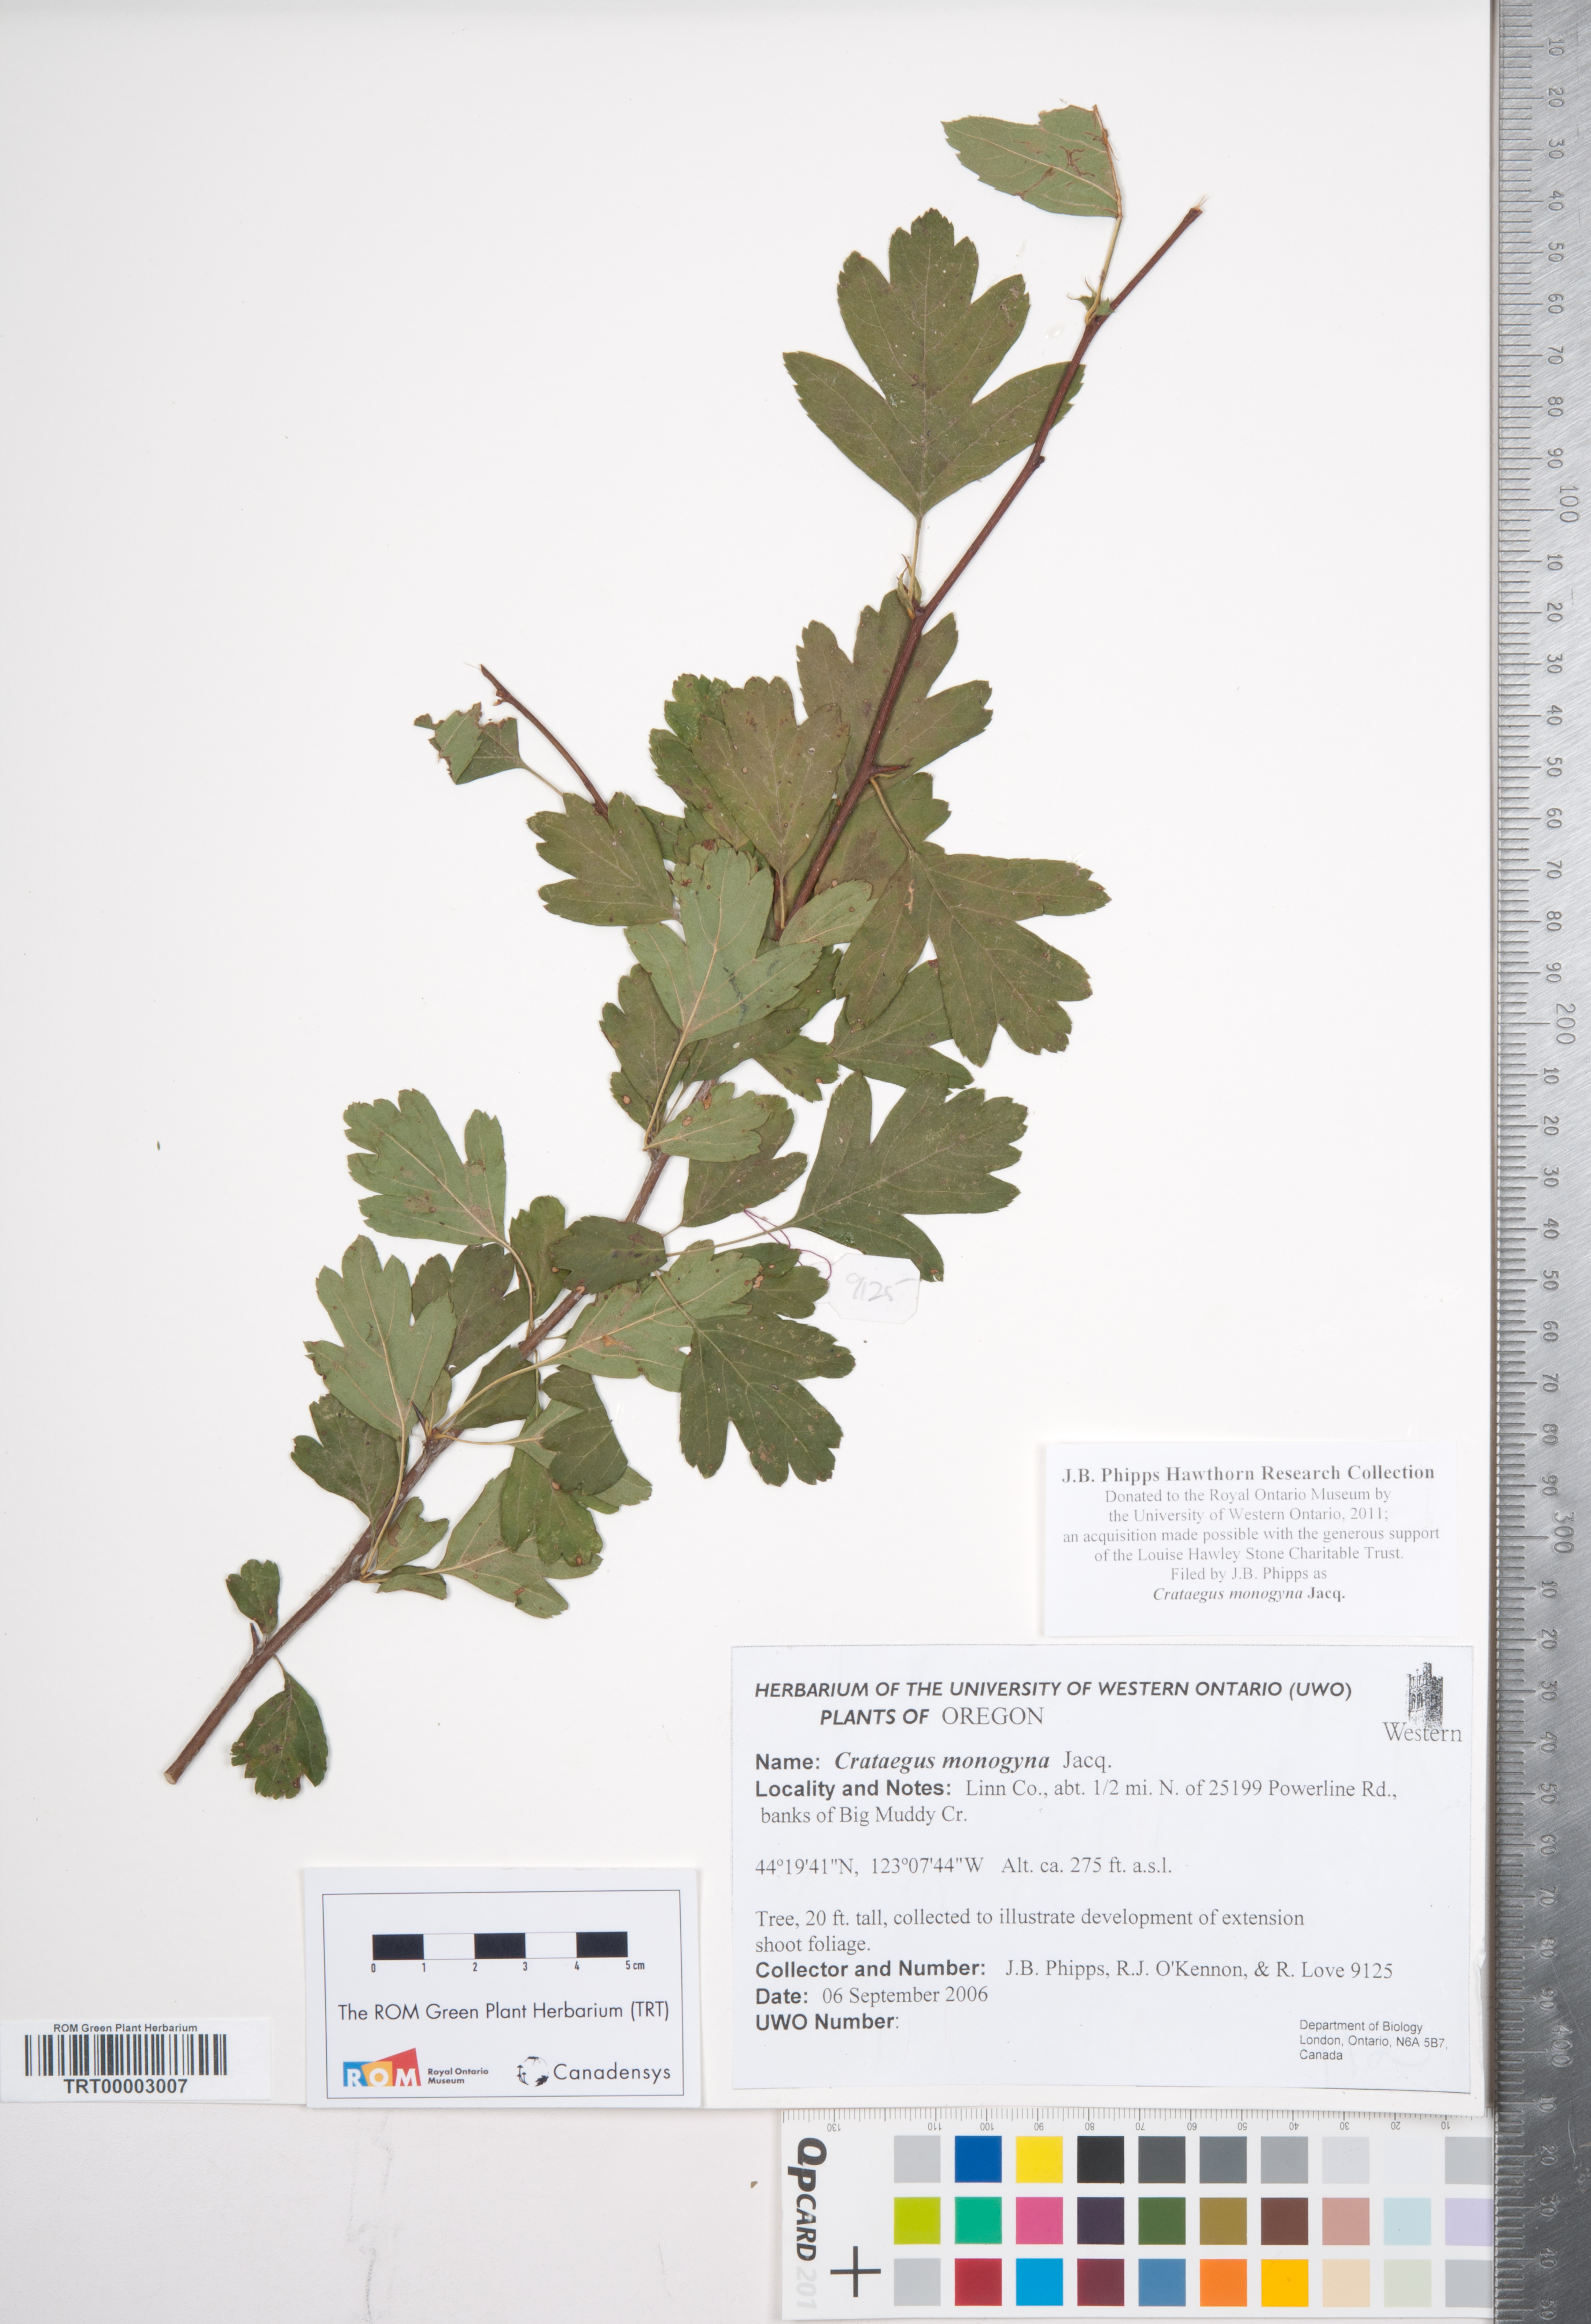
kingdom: Plantae
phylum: Tracheophyta
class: Magnoliopsida
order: Rosales
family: Rosaceae
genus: Crataegus
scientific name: Crataegus monogyna
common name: Hawthorn
